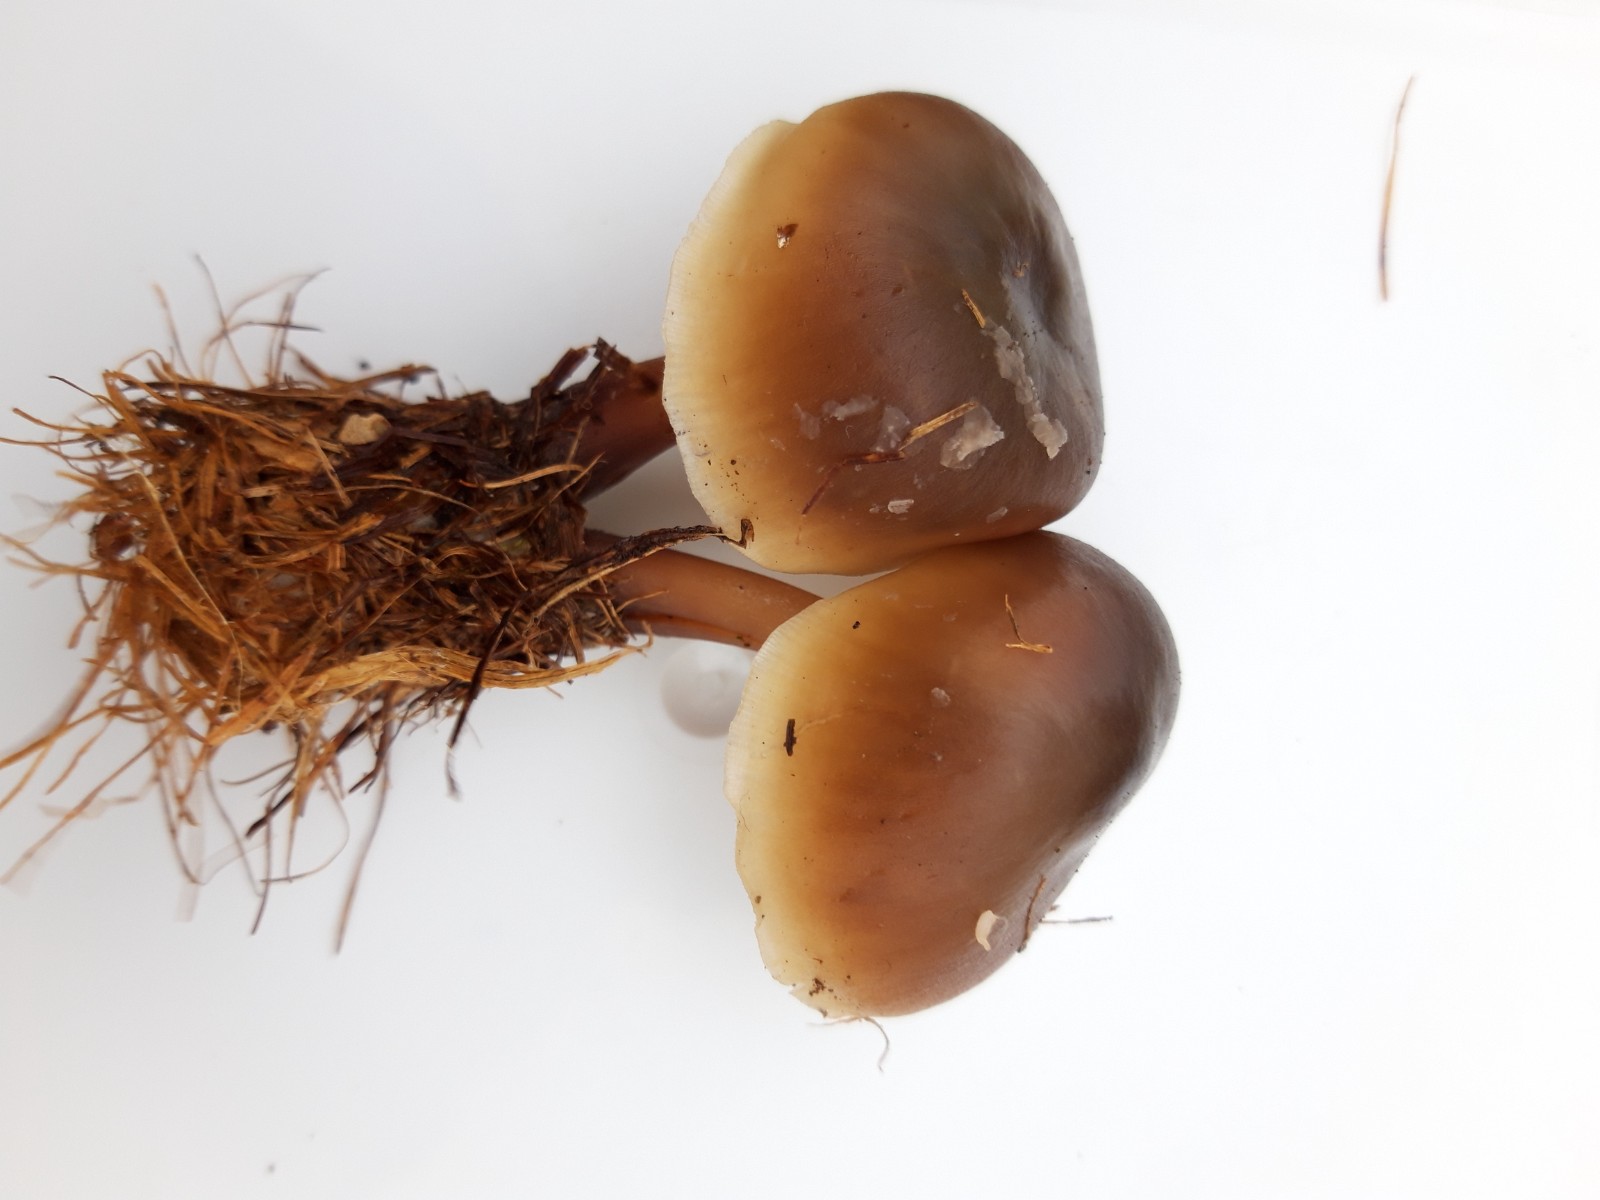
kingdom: Fungi
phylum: Basidiomycota
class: Agaricomycetes
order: Agaricales
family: Omphalotaceae
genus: Rhodocollybia
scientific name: Rhodocollybia asema
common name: horngrå fladhat
